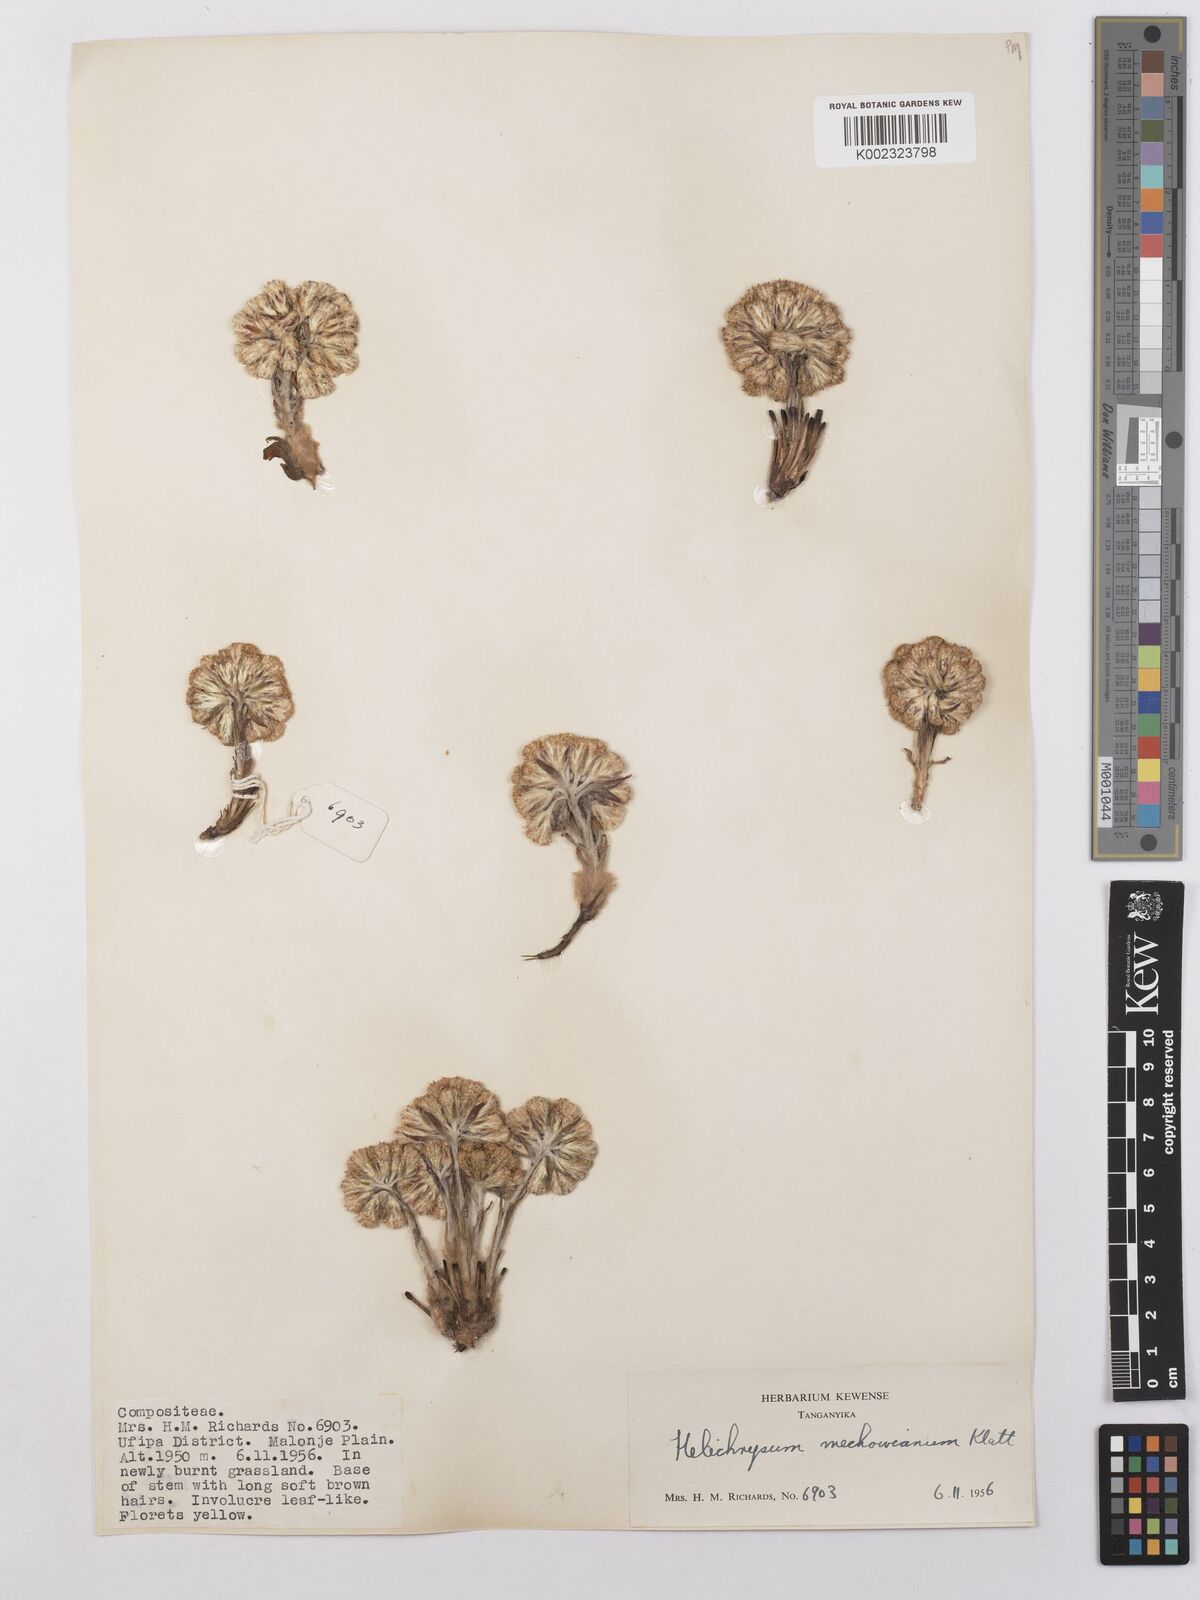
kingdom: Plantae
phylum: Tracheophyta
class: Magnoliopsida
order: Asterales
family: Asteraceae
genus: Helichrysum
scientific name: Helichrysum mechowianum
